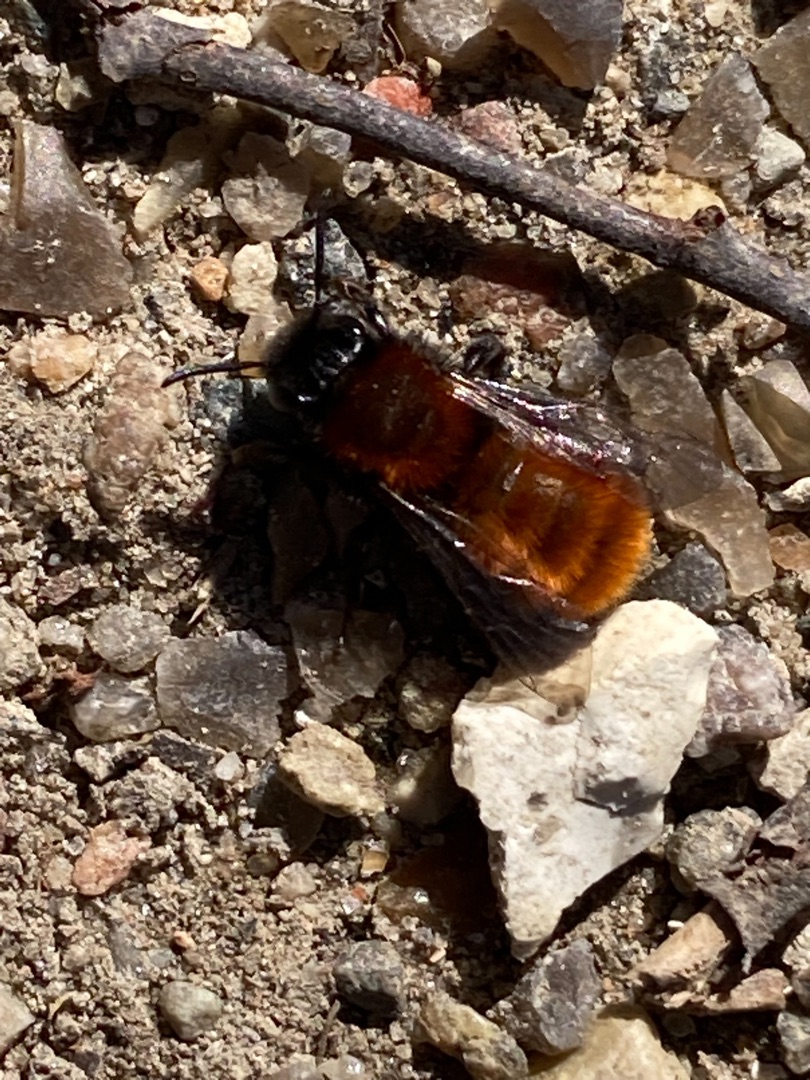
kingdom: Animalia
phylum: Arthropoda
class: Insecta
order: Hymenoptera
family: Andrenidae
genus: Andrena
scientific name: Andrena fulva
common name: Rødpelset jordbi
